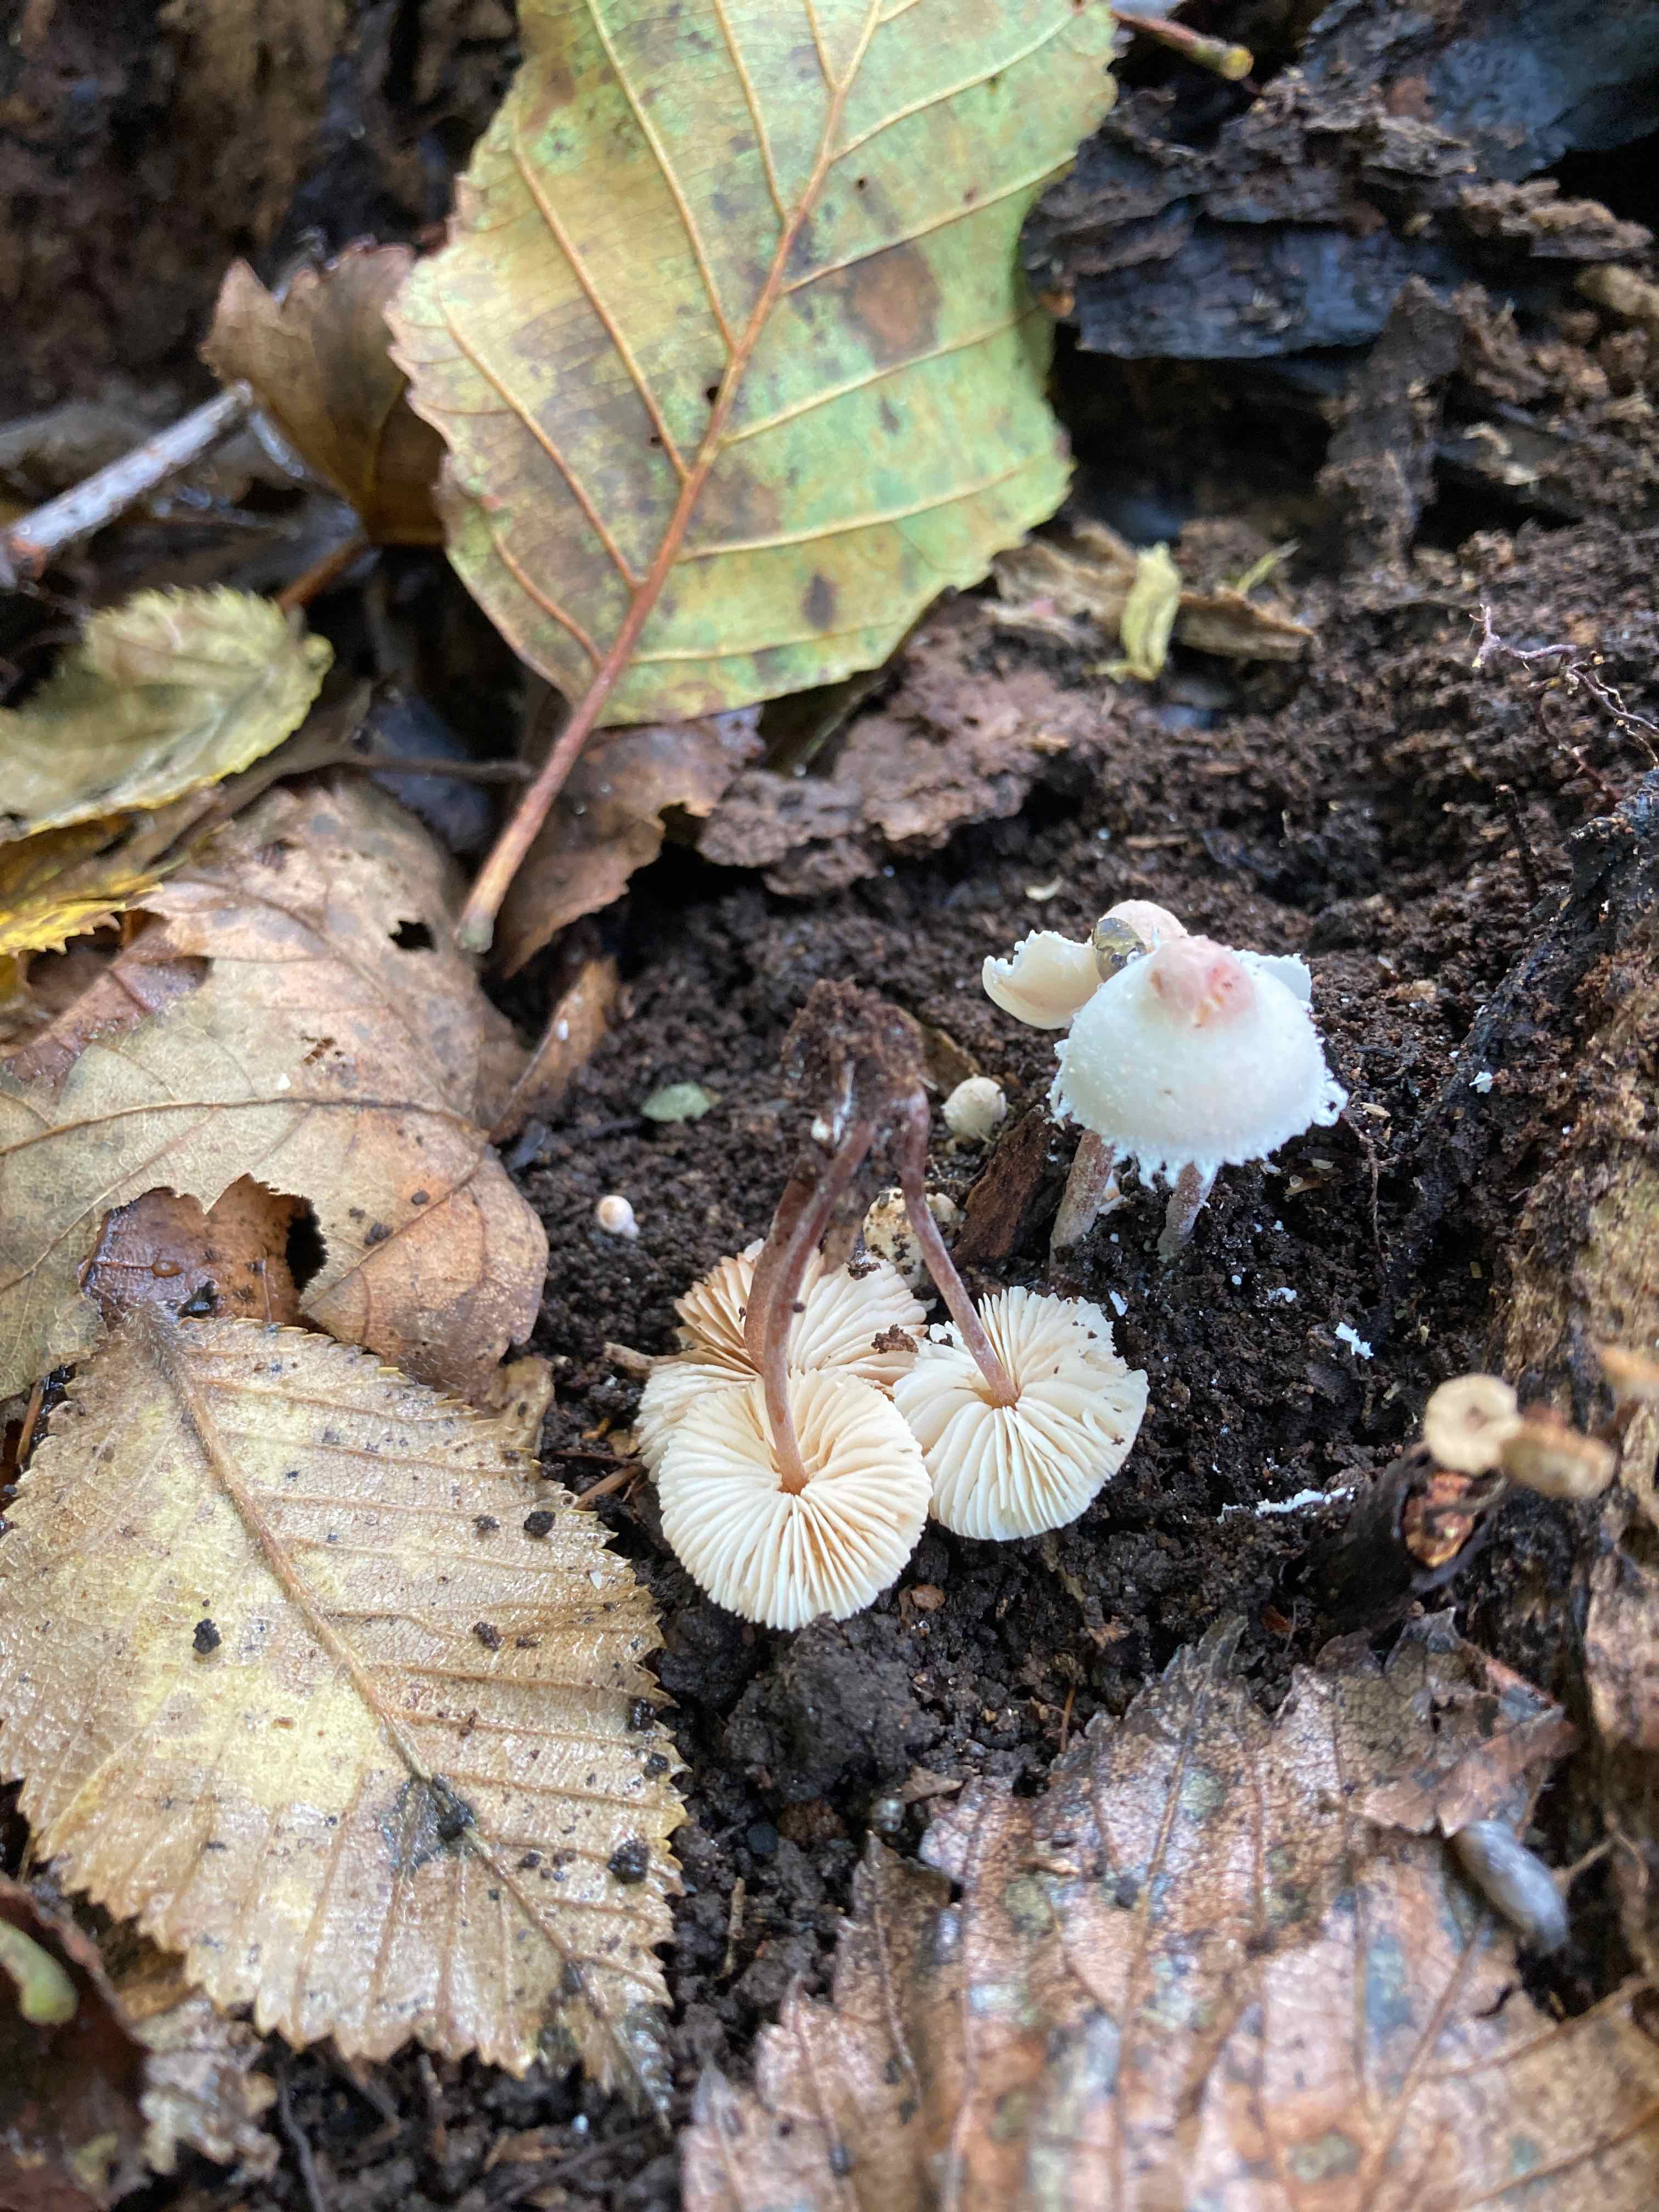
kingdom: Fungi
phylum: Basidiomycota
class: Agaricomycetes
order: Agaricales
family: Agaricaceae
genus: Cystolepiota
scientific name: Cystolepiota seminuda
